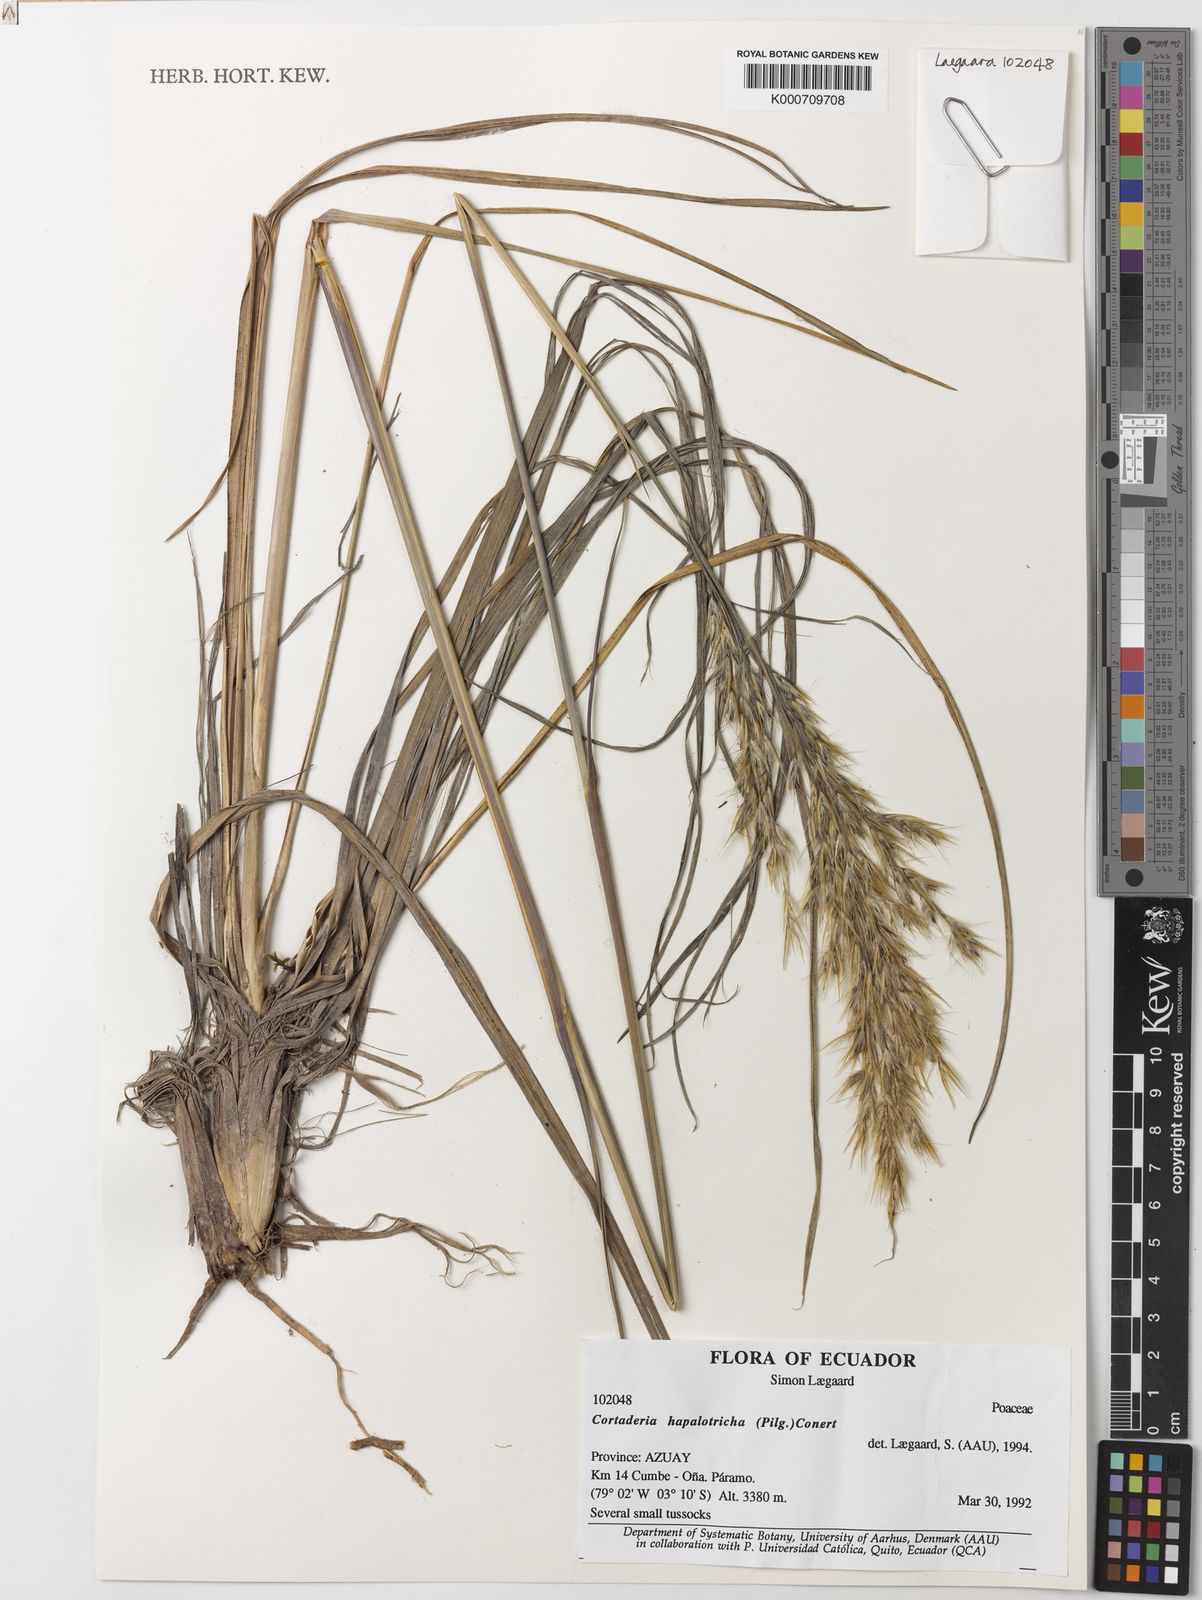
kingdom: Plantae
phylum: Tracheophyta
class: Liliopsida
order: Poales
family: Poaceae
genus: Cortaderia
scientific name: Cortaderia hapalotricha
